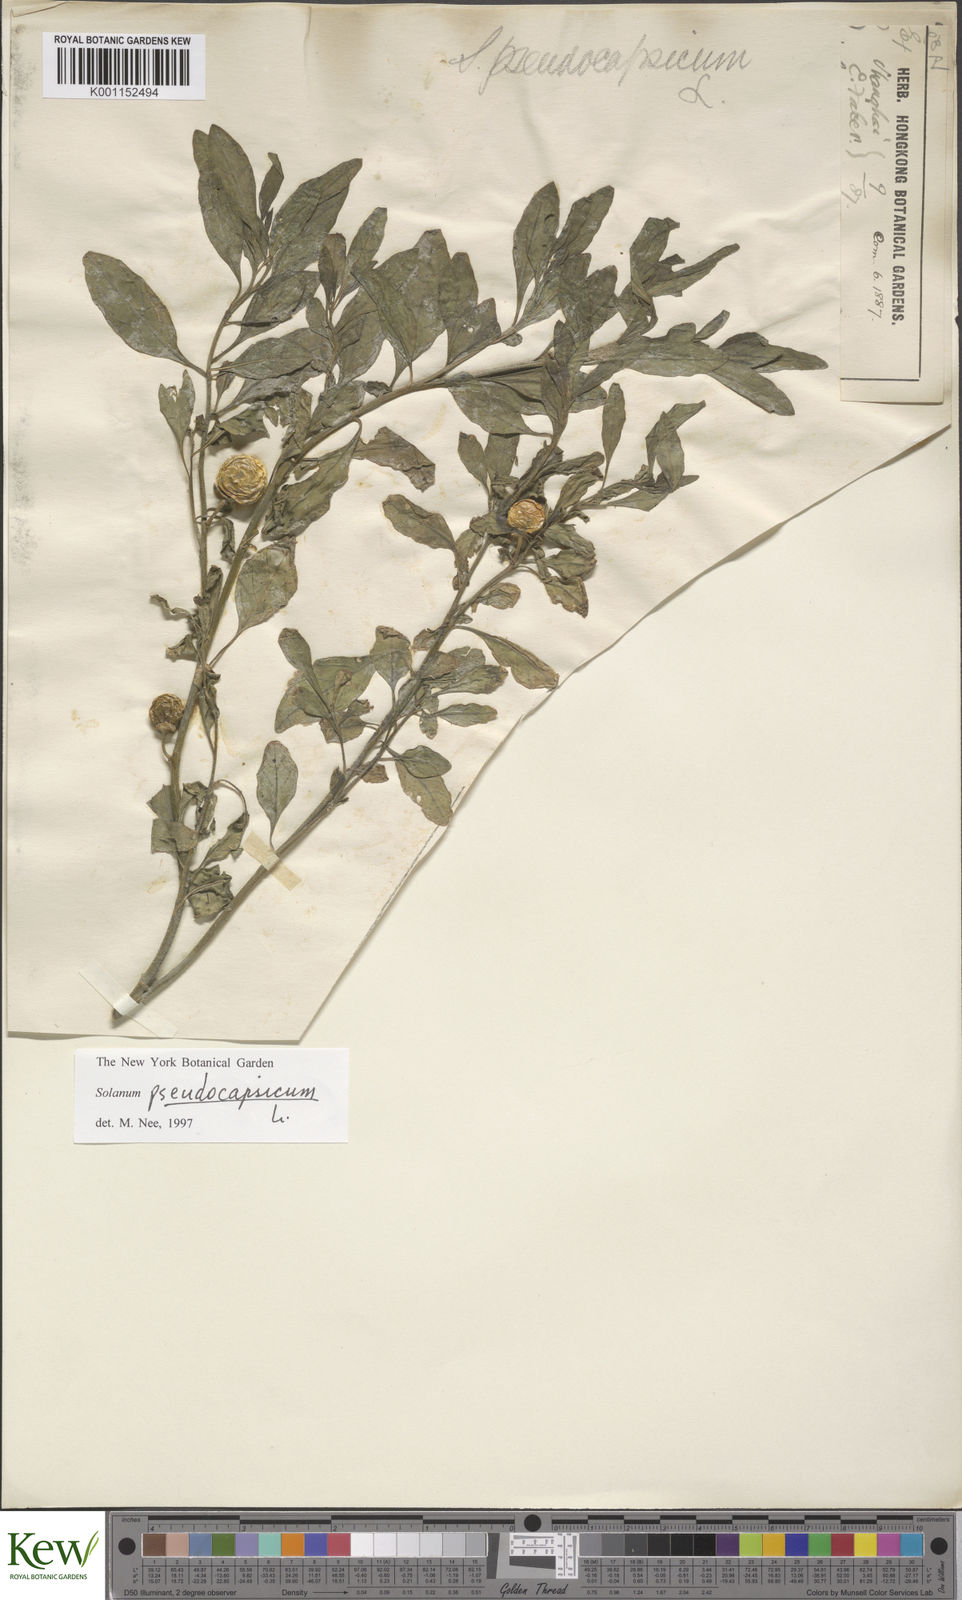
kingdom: Plantae
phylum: Tracheophyta
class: Magnoliopsida
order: Solanales
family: Solanaceae
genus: Solanum
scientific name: Solanum pseudocapsicum
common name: Jerusalem cherry
